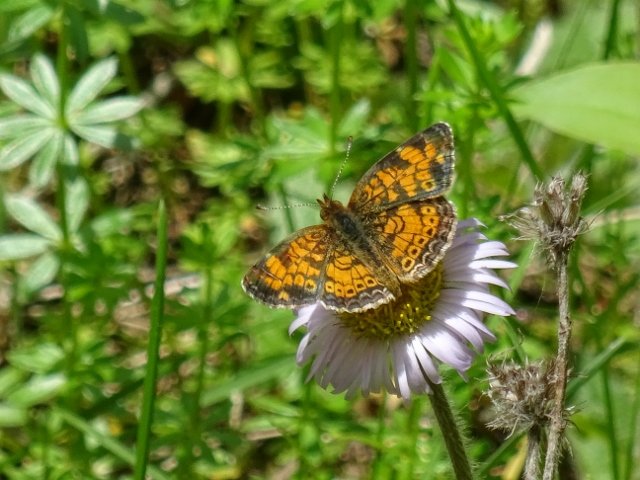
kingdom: Animalia
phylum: Arthropoda
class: Insecta
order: Lepidoptera
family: Nymphalidae
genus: Phyciodes
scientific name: Phyciodes tharos
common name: Pearl Crescent
